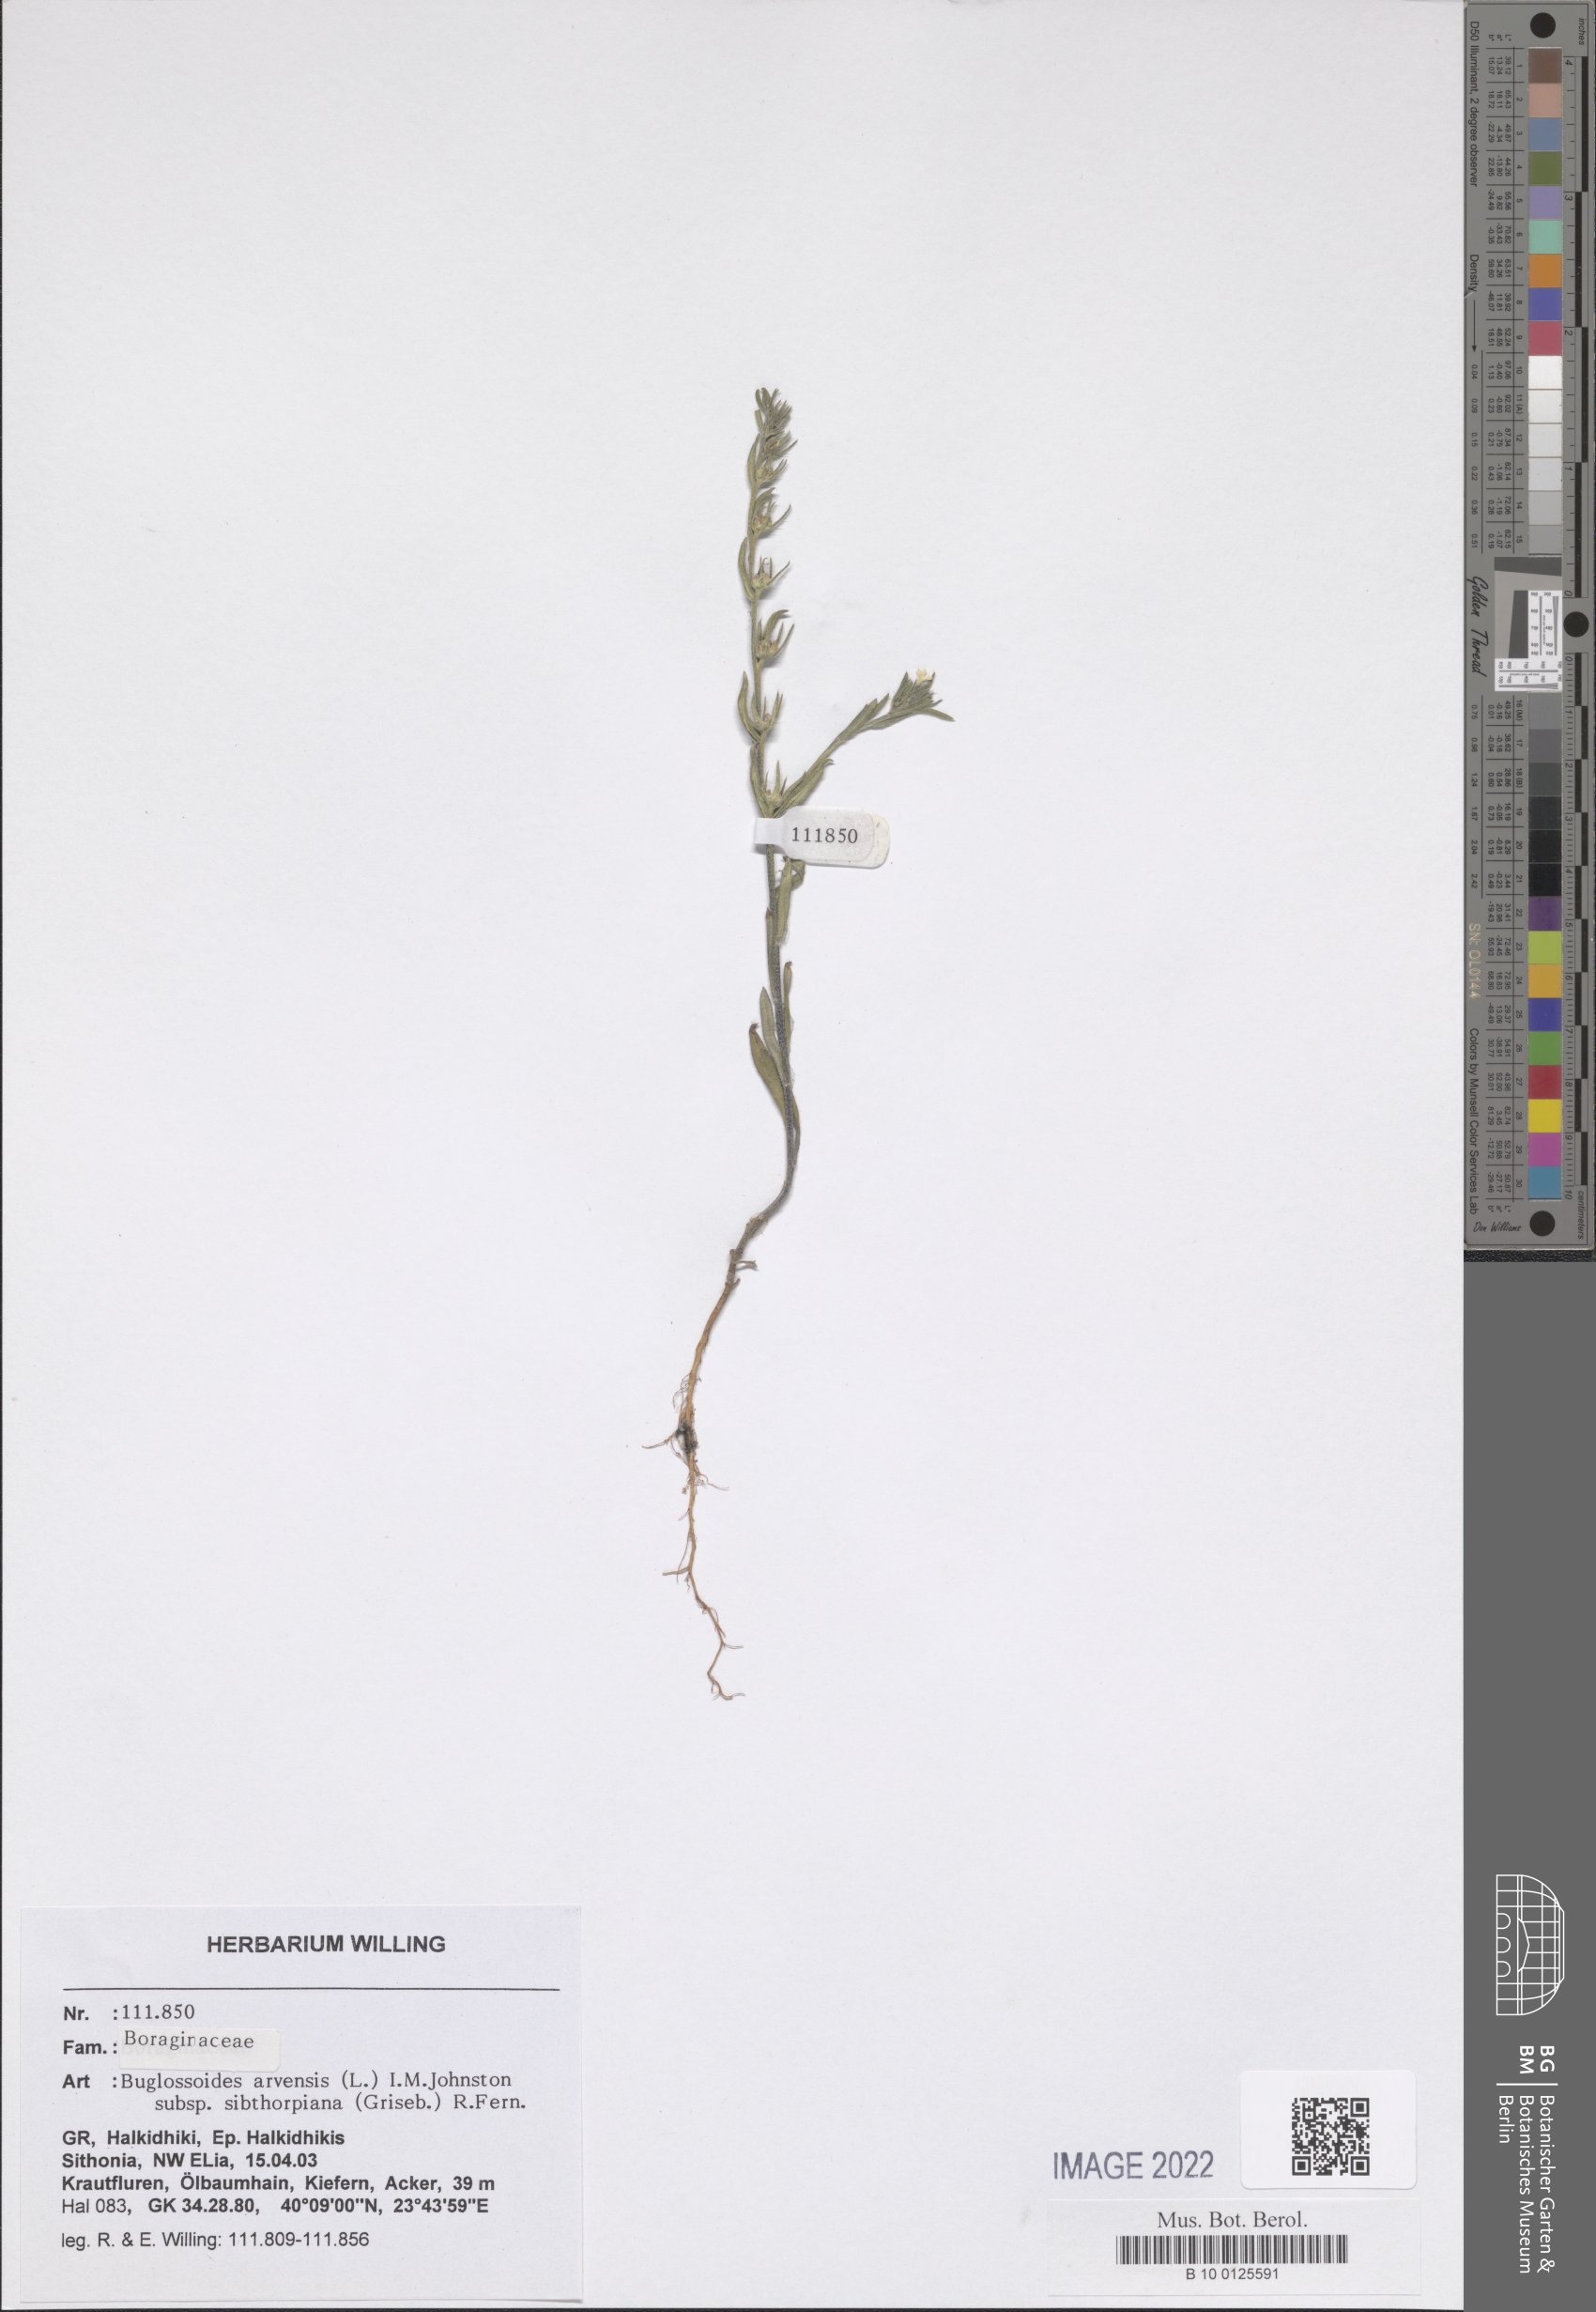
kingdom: Plantae
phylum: Tracheophyta
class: Magnoliopsida
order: Boraginales
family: Boraginaceae
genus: Buglossoides
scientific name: Buglossoides arvensis
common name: Corn gromwell
